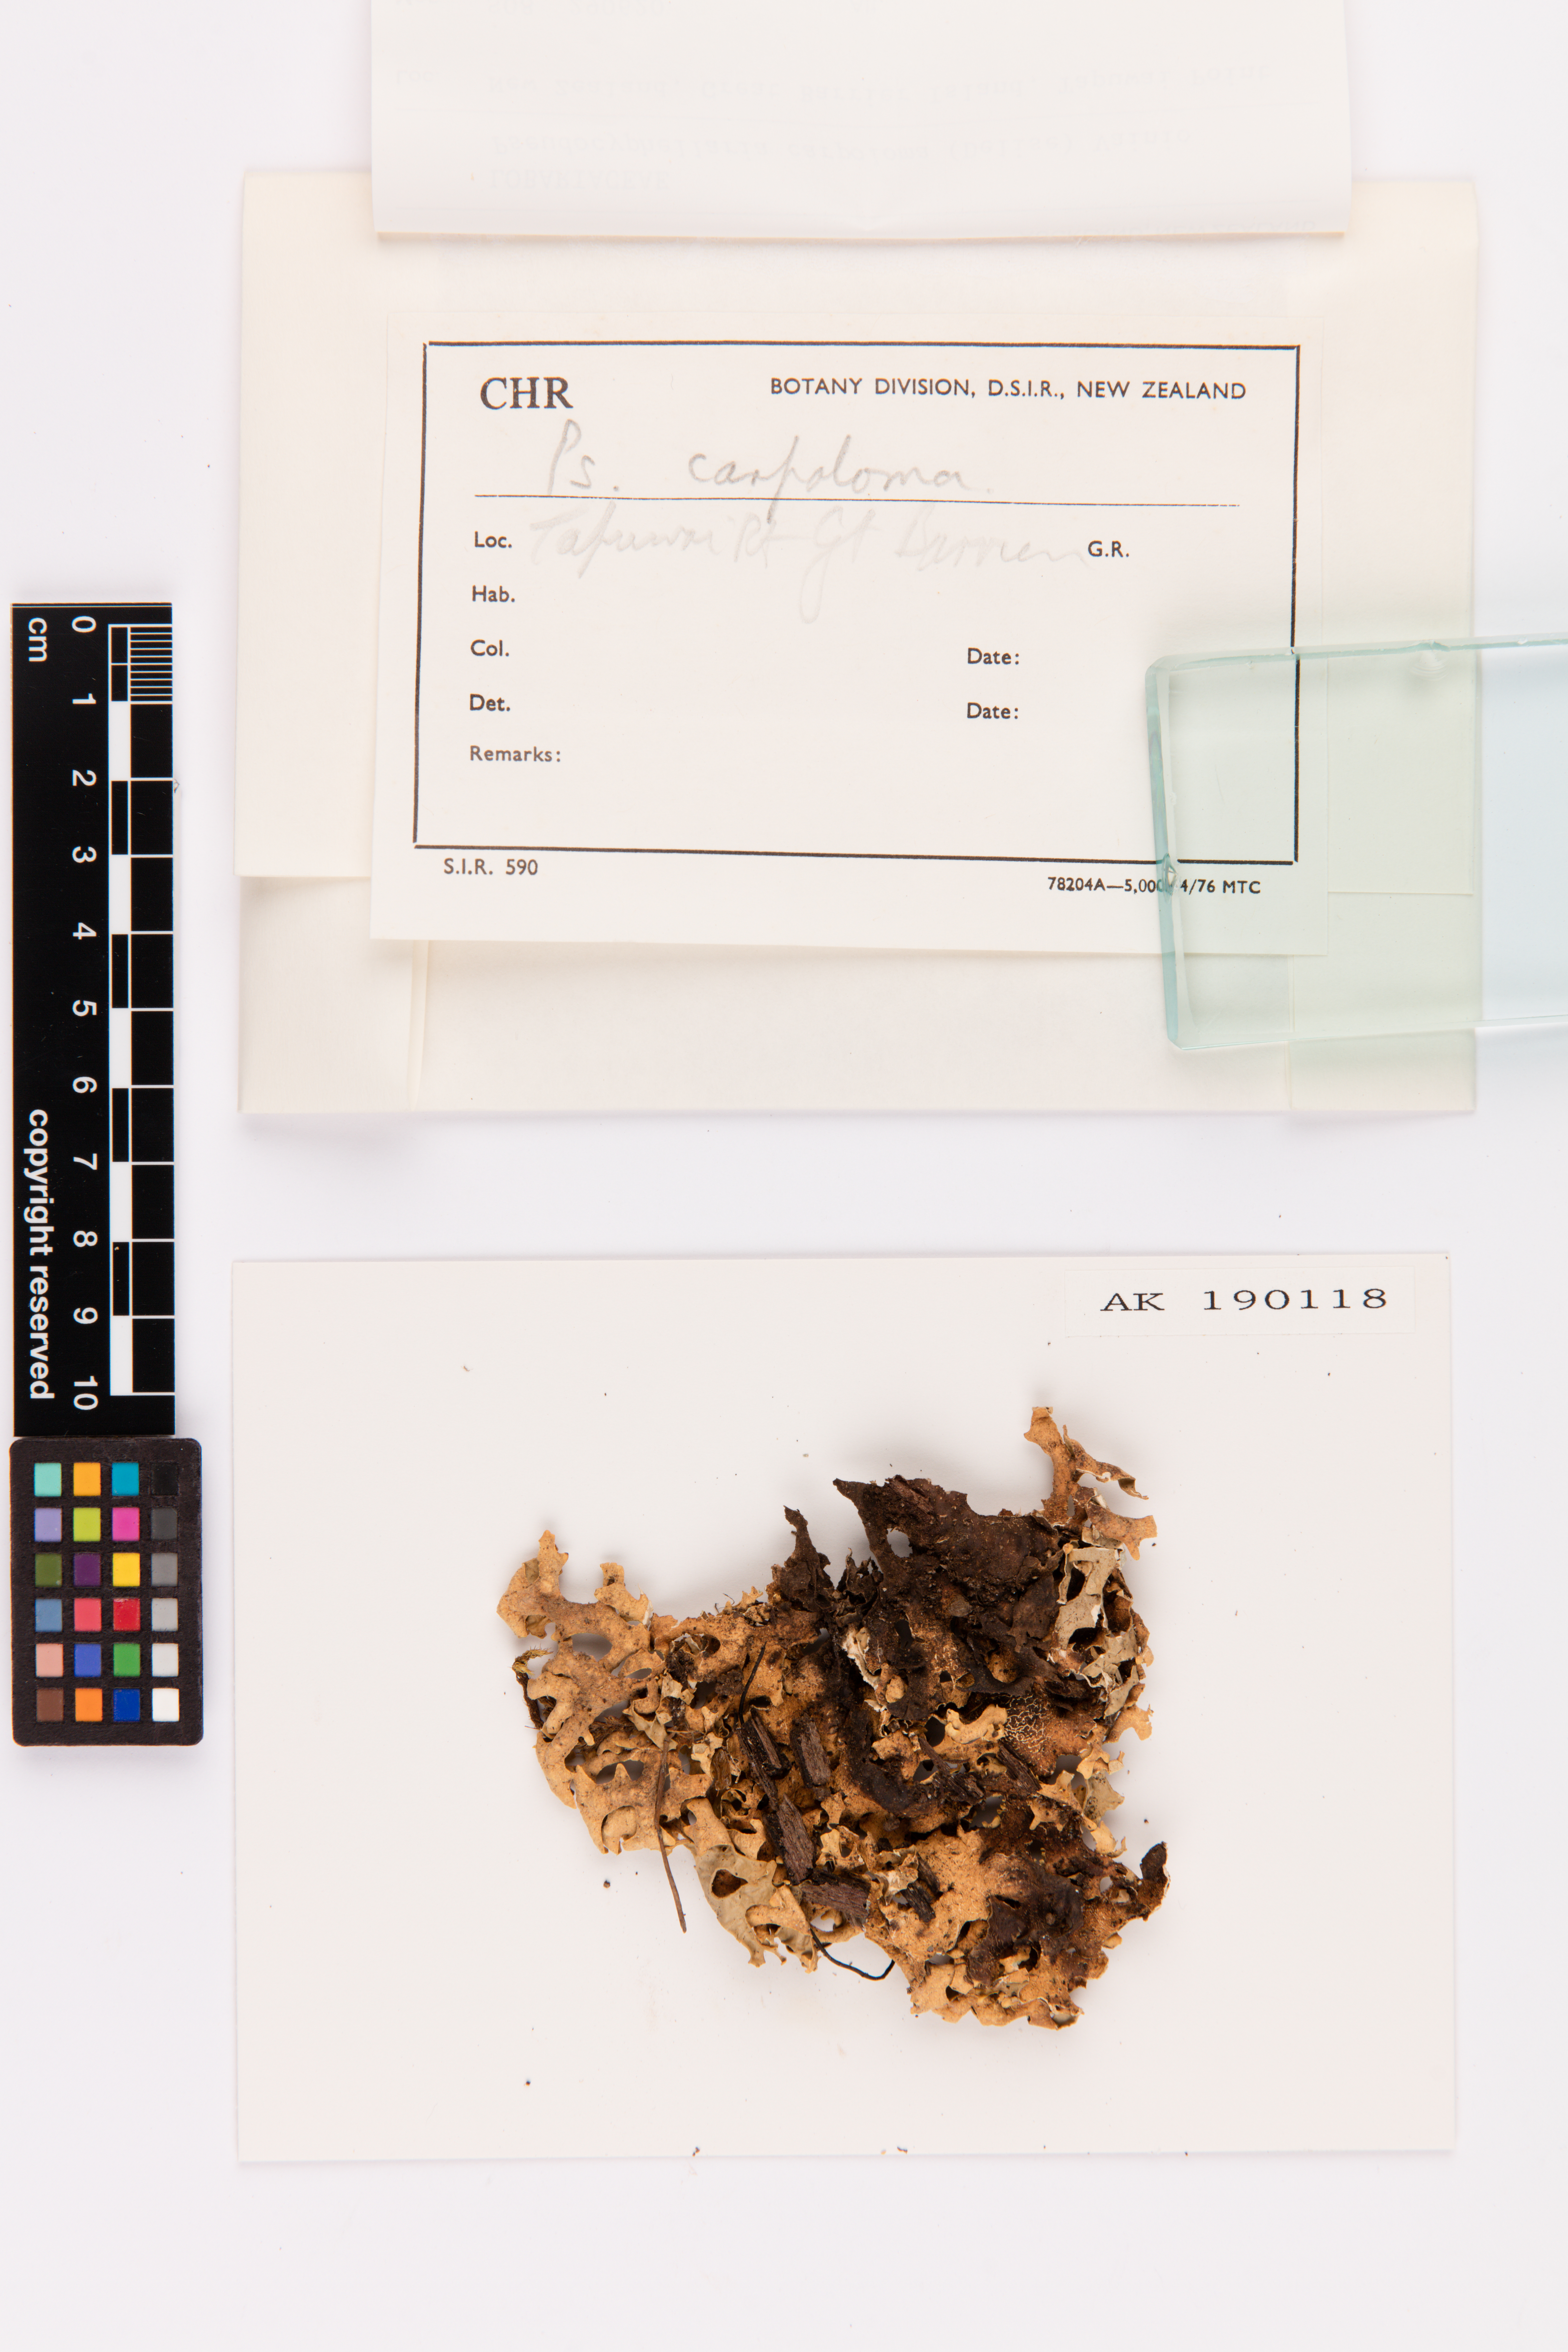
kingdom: Fungi
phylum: Ascomycota
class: Lecanoromycetes
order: Peltigerales
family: Lobariaceae
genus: Pseudocyphellaria
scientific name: Pseudocyphellaria carpoloma
